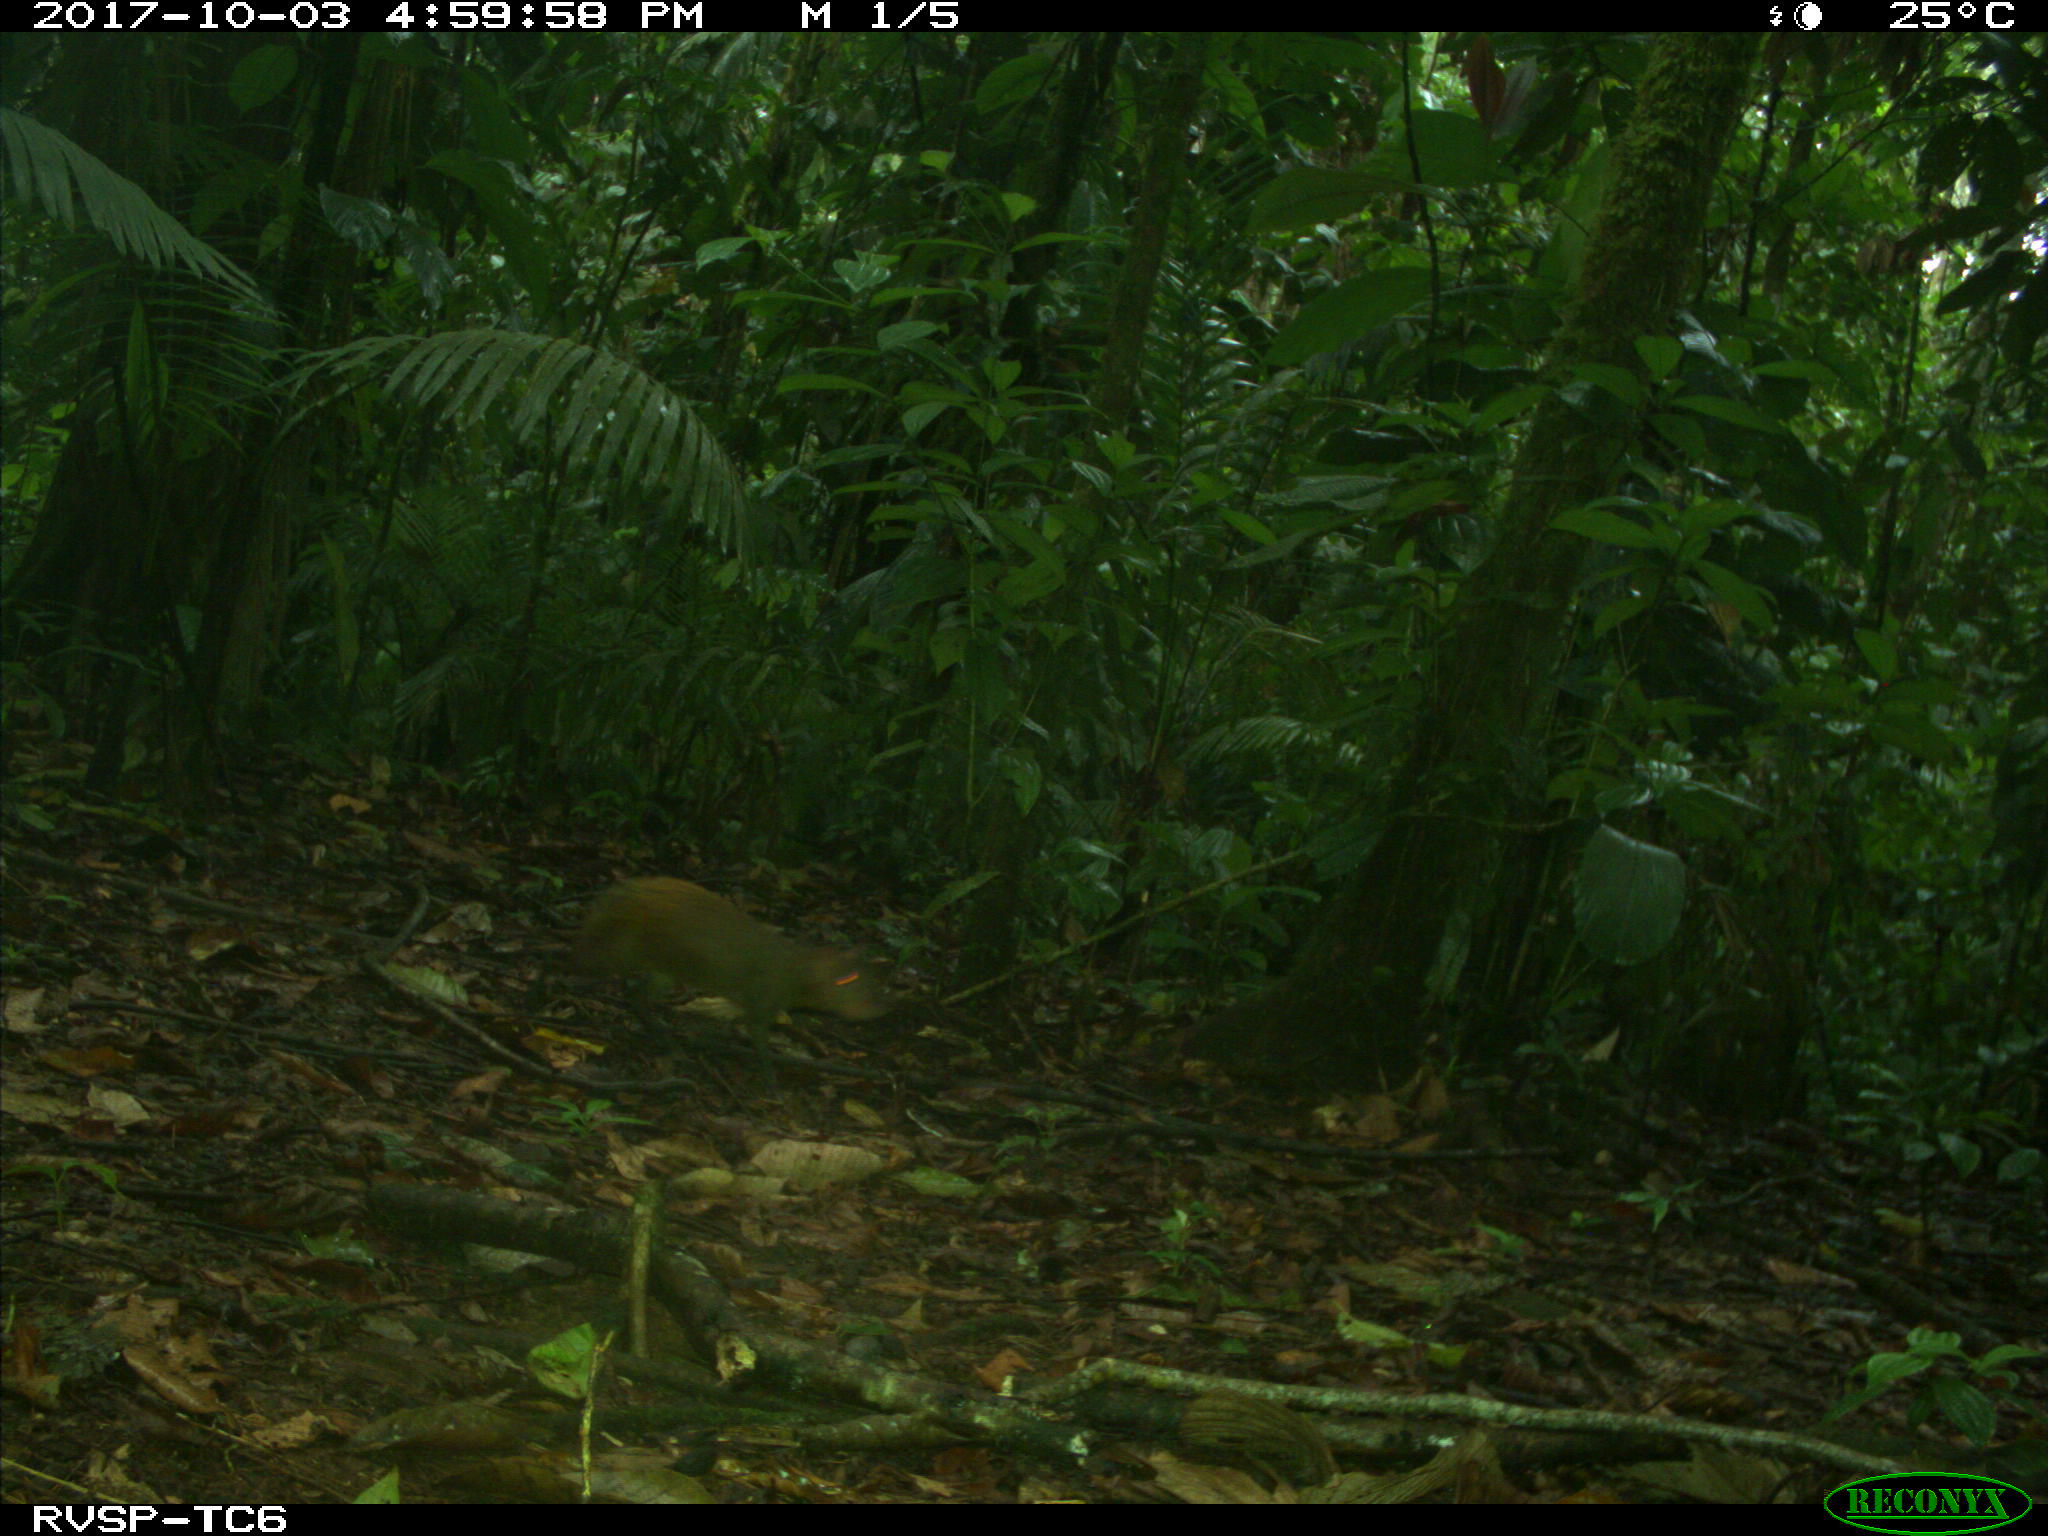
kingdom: Animalia
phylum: Chordata
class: Mammalia
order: Rodentia
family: Dasyproctidae
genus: Dasyprocta
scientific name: Dasyprocta punctata
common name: Central american agouti
